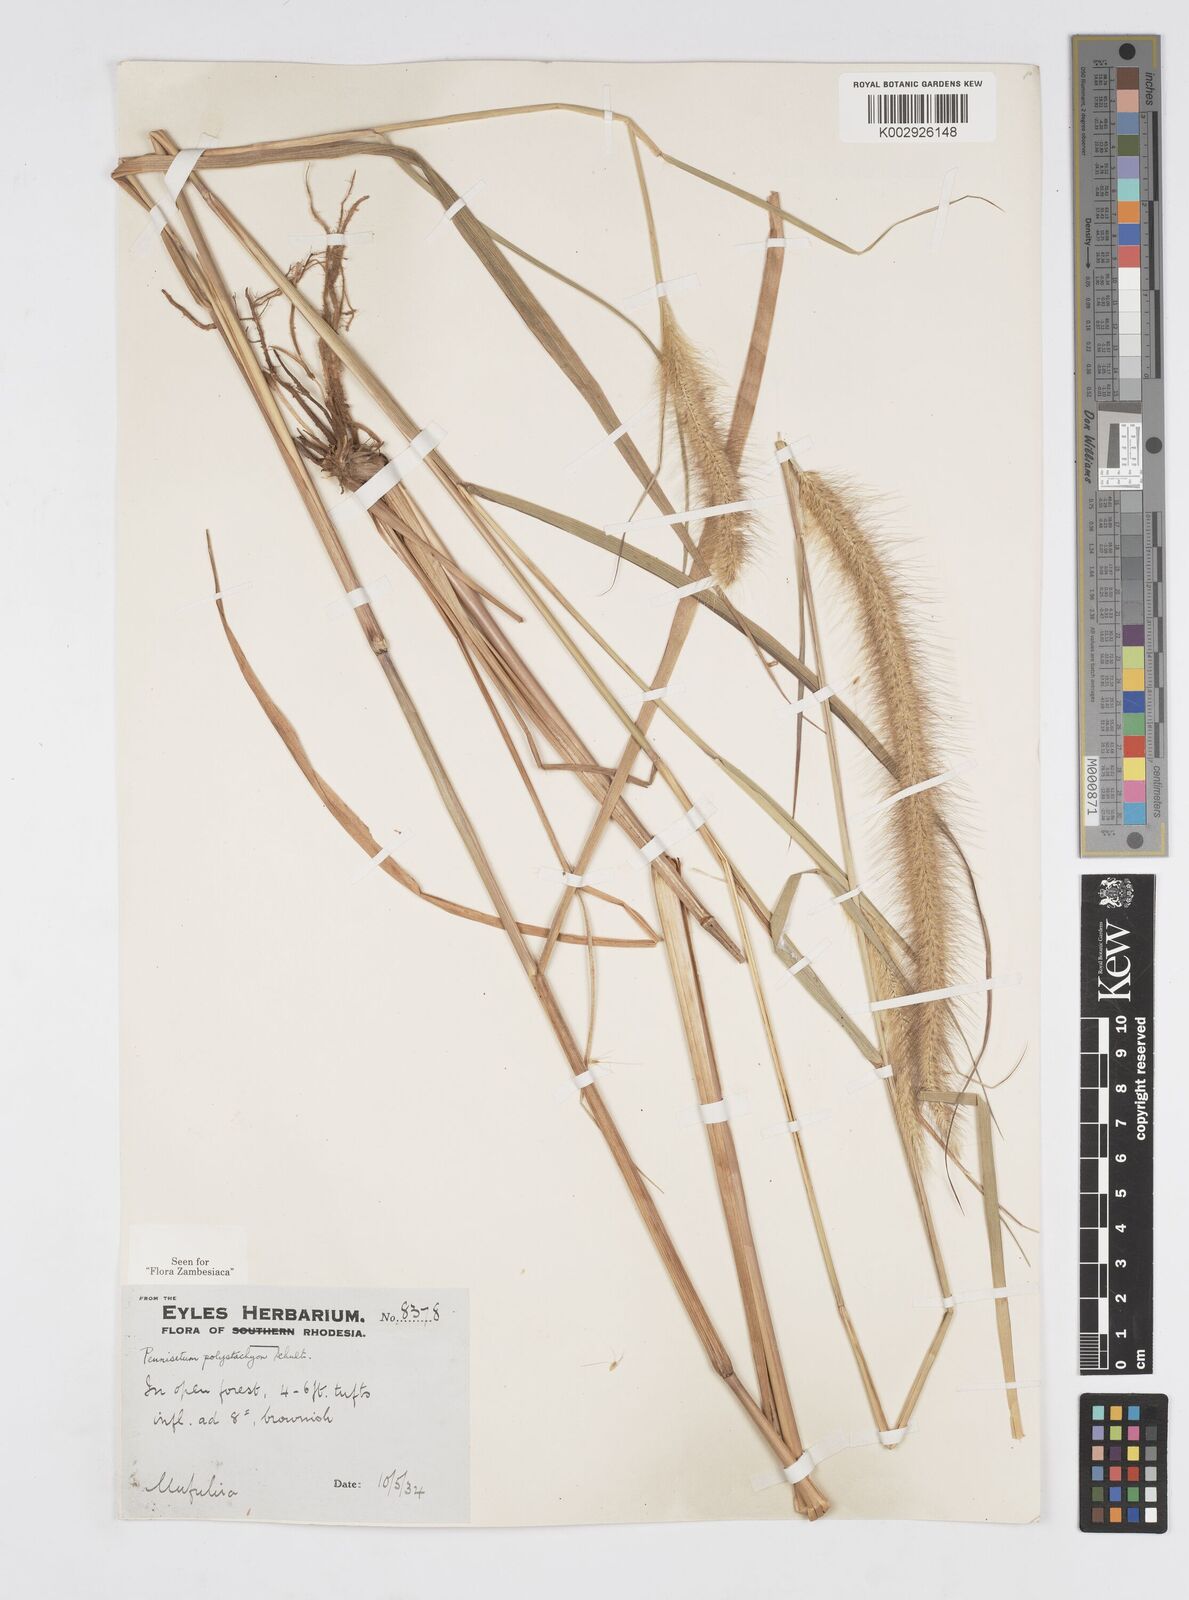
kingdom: Plantae
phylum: Tracheophyta
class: Liliopsida
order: Poales
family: Poaceae
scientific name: Poaceae
